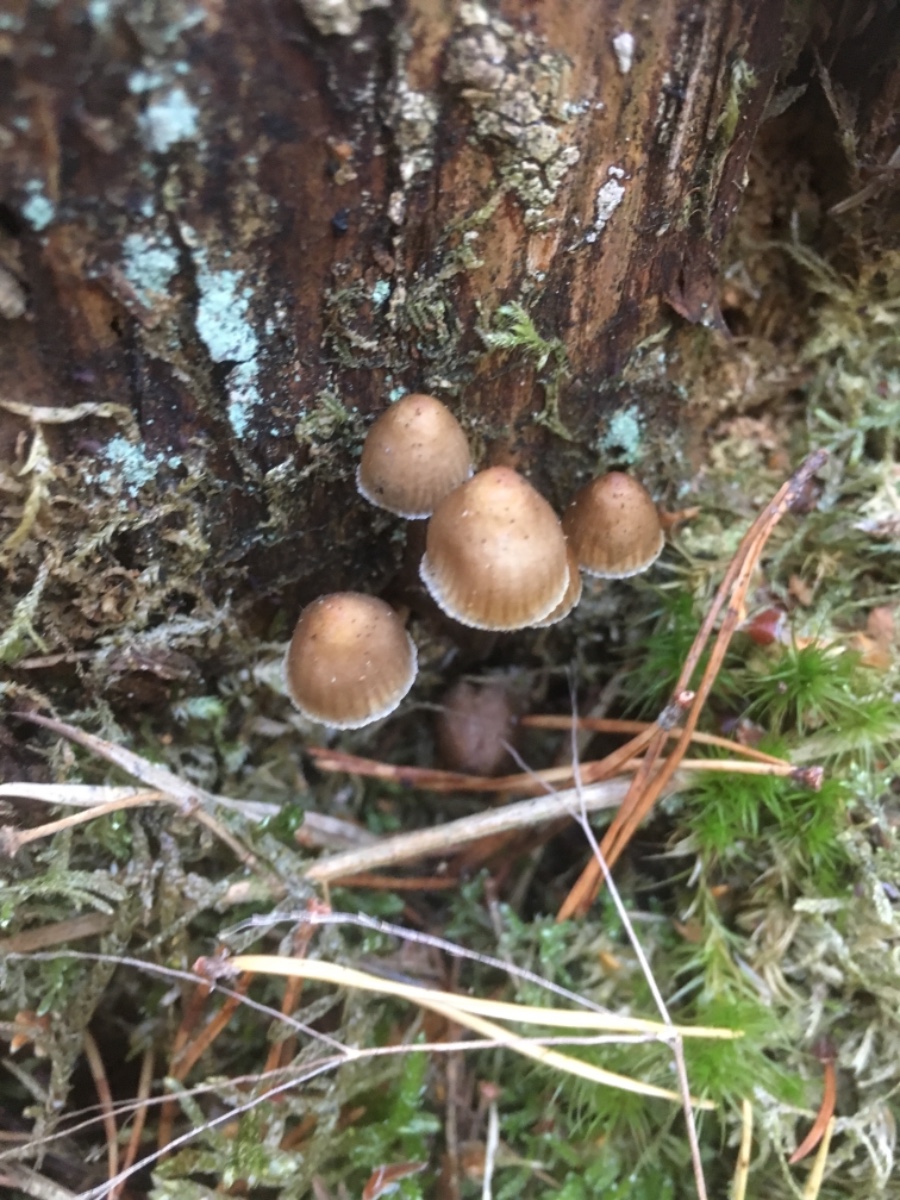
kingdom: Fungi
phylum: Basidiomycota
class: Agaricomycetes
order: Agaricales
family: Mycenaceae
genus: Mycena
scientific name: Mycena stipata
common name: stinkende huesvamp
